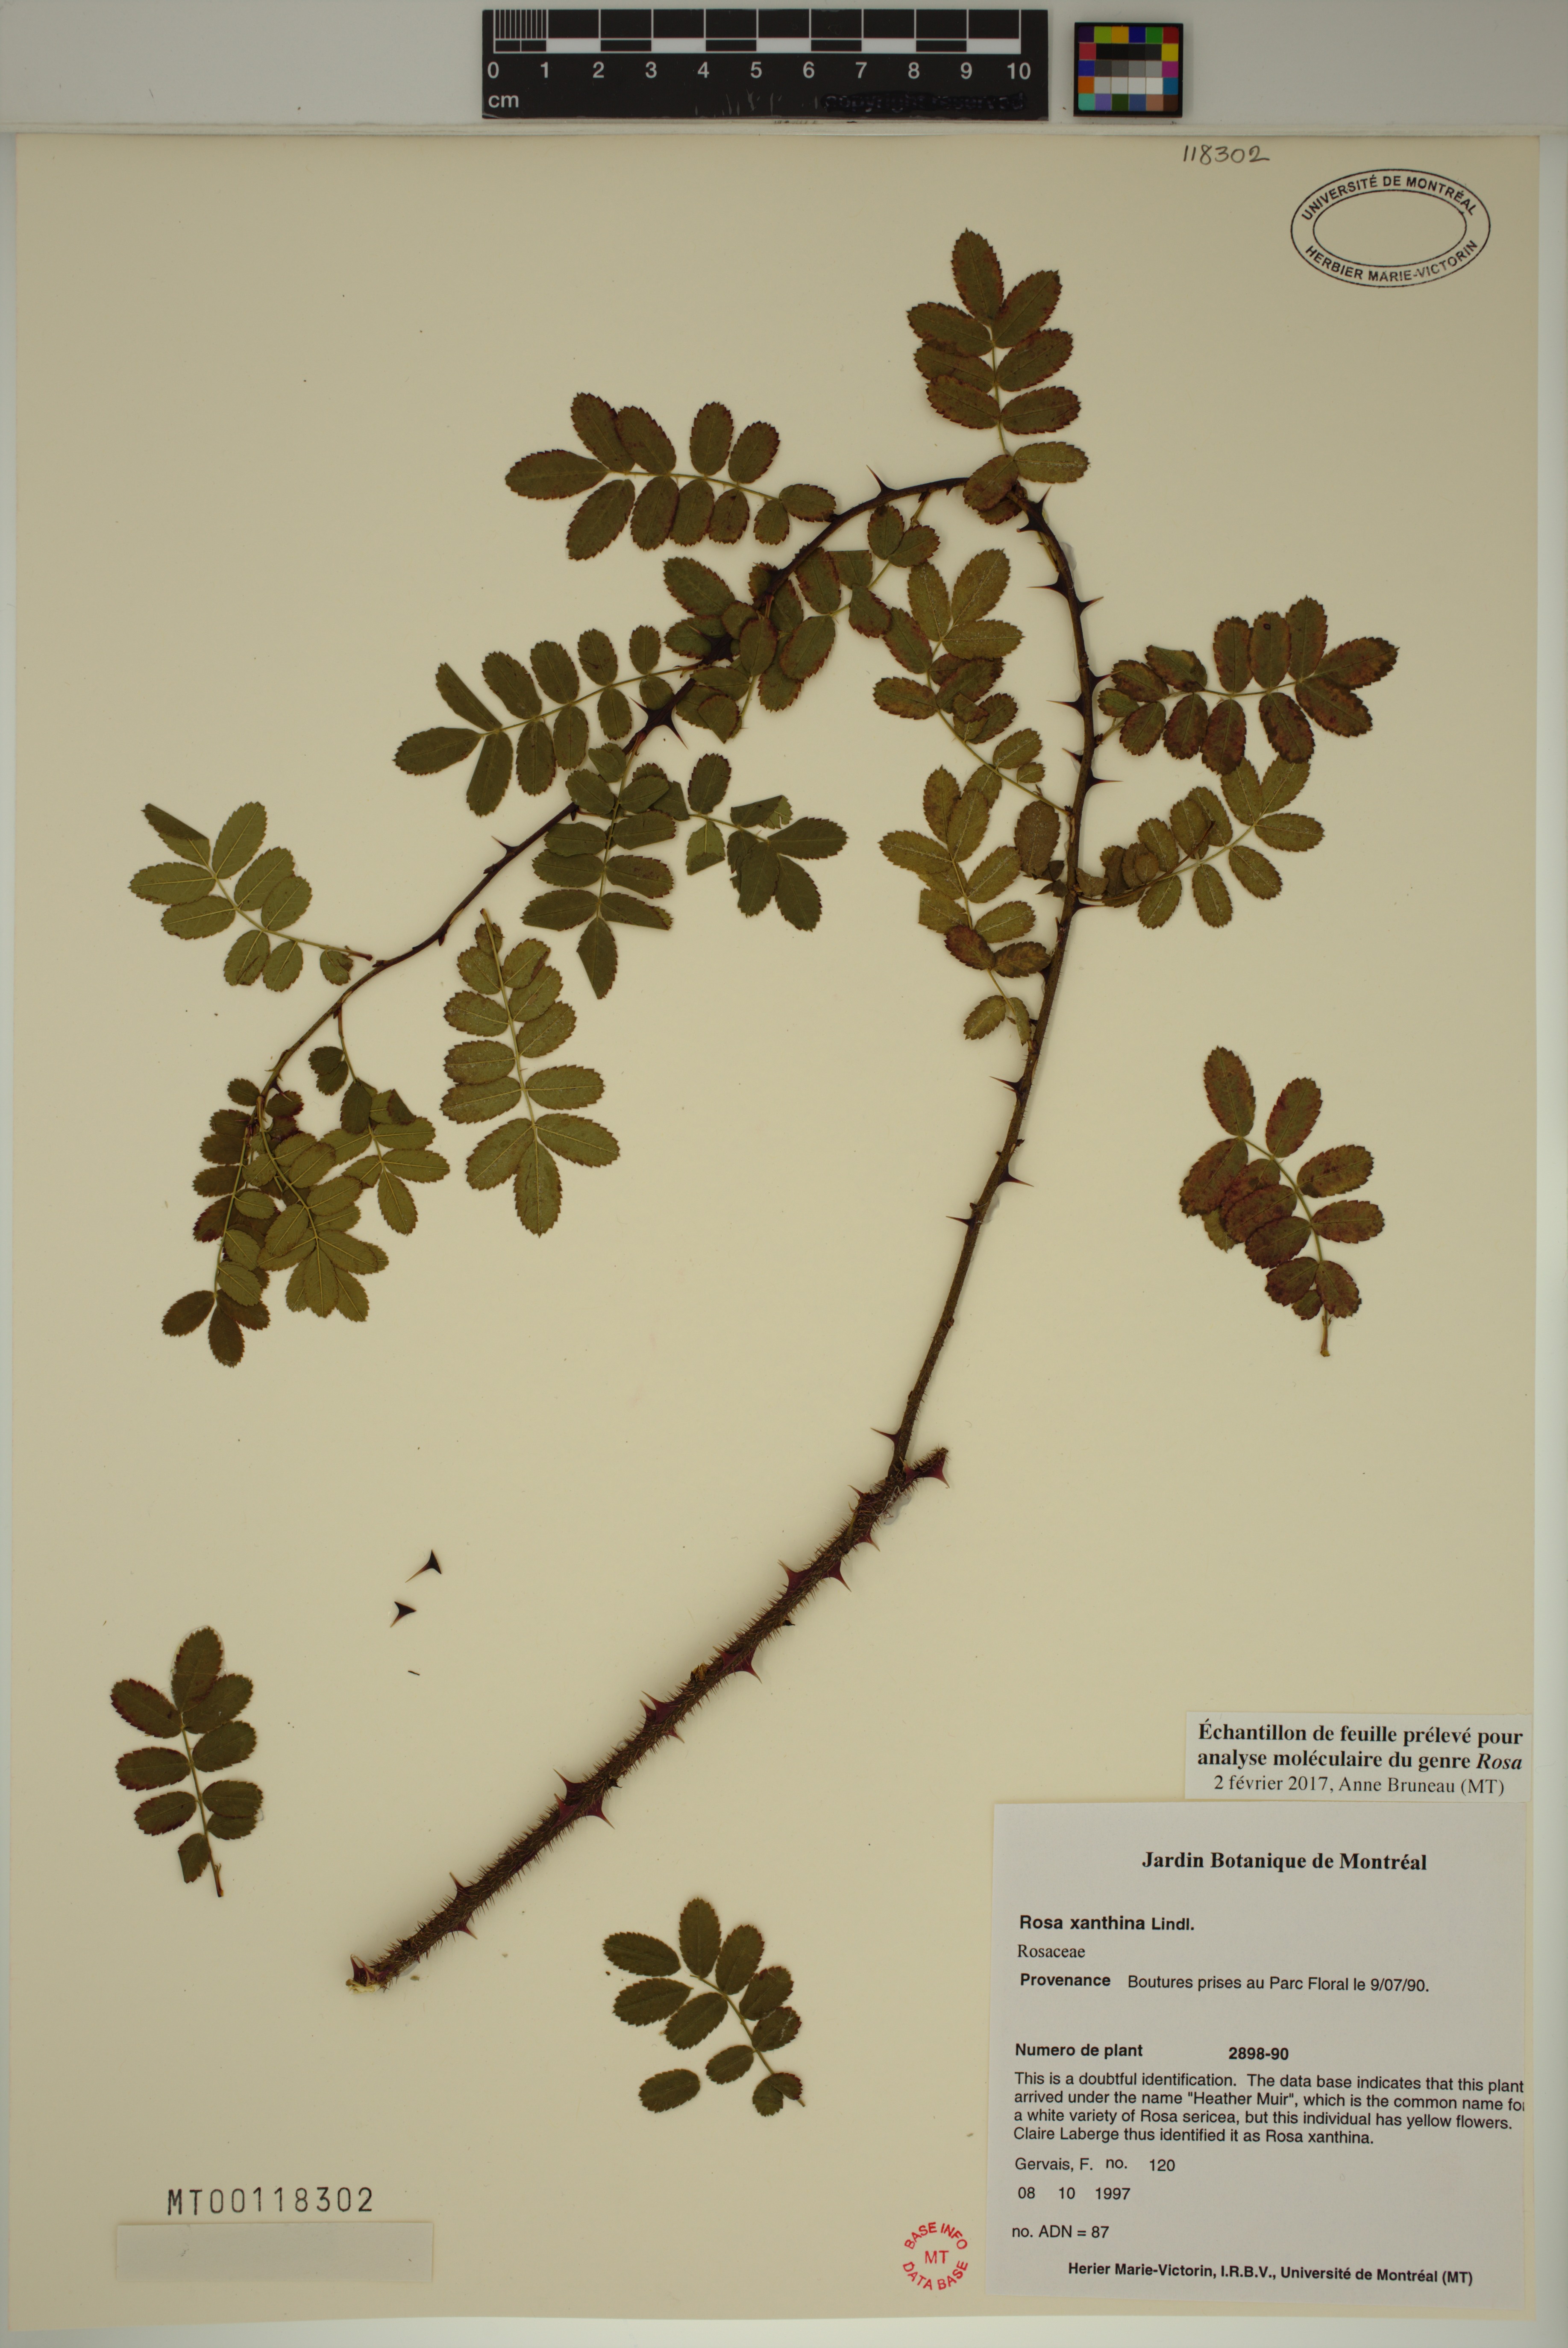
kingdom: Plantae
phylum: Tracheophyta
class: Magnoliopsida
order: Rosales
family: Rosaceae
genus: Rosa
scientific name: Rosa xanthina
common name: Yellow rose
